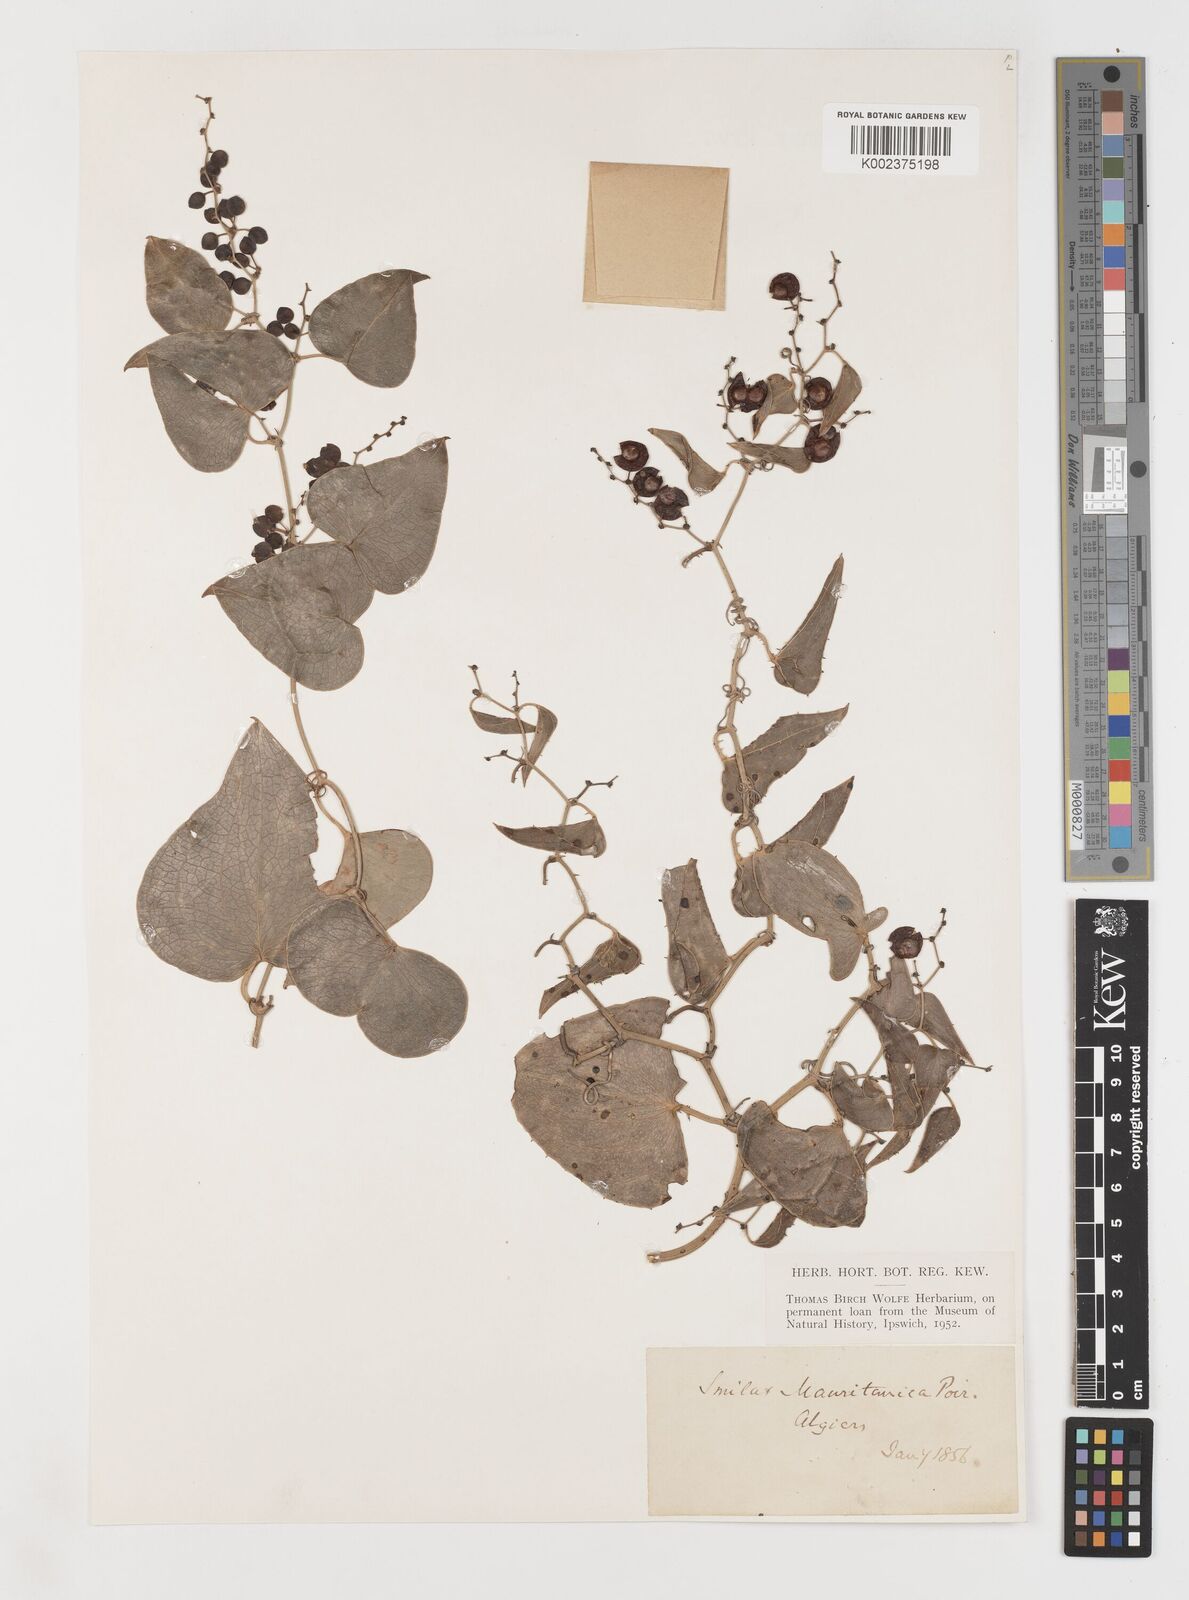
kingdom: Plantae
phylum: Tracheophyta
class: Liliopsida
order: Liliales
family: Smilacaceae
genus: Smilax
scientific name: Smilax aspera
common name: Common smilax
